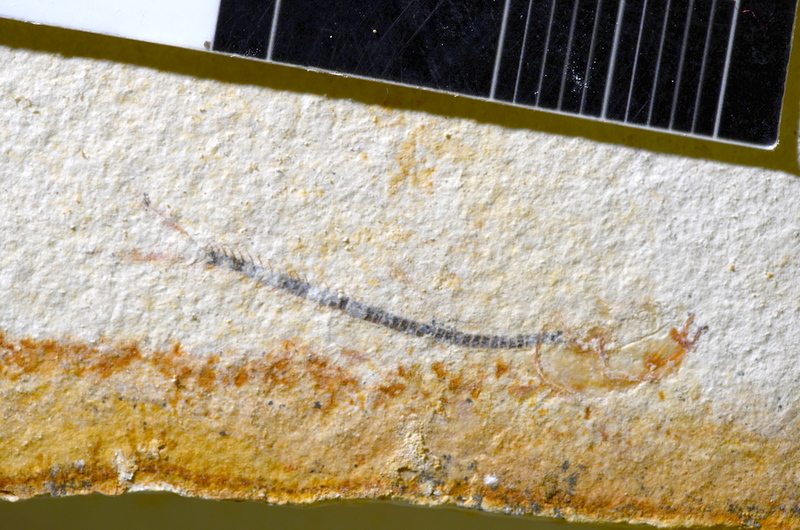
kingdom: Animalia
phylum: Chordata
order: Salmoniformes
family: Orthogonikleithridae
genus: Orthogonikleithrus
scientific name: Orthogonikleithrus hoelli
